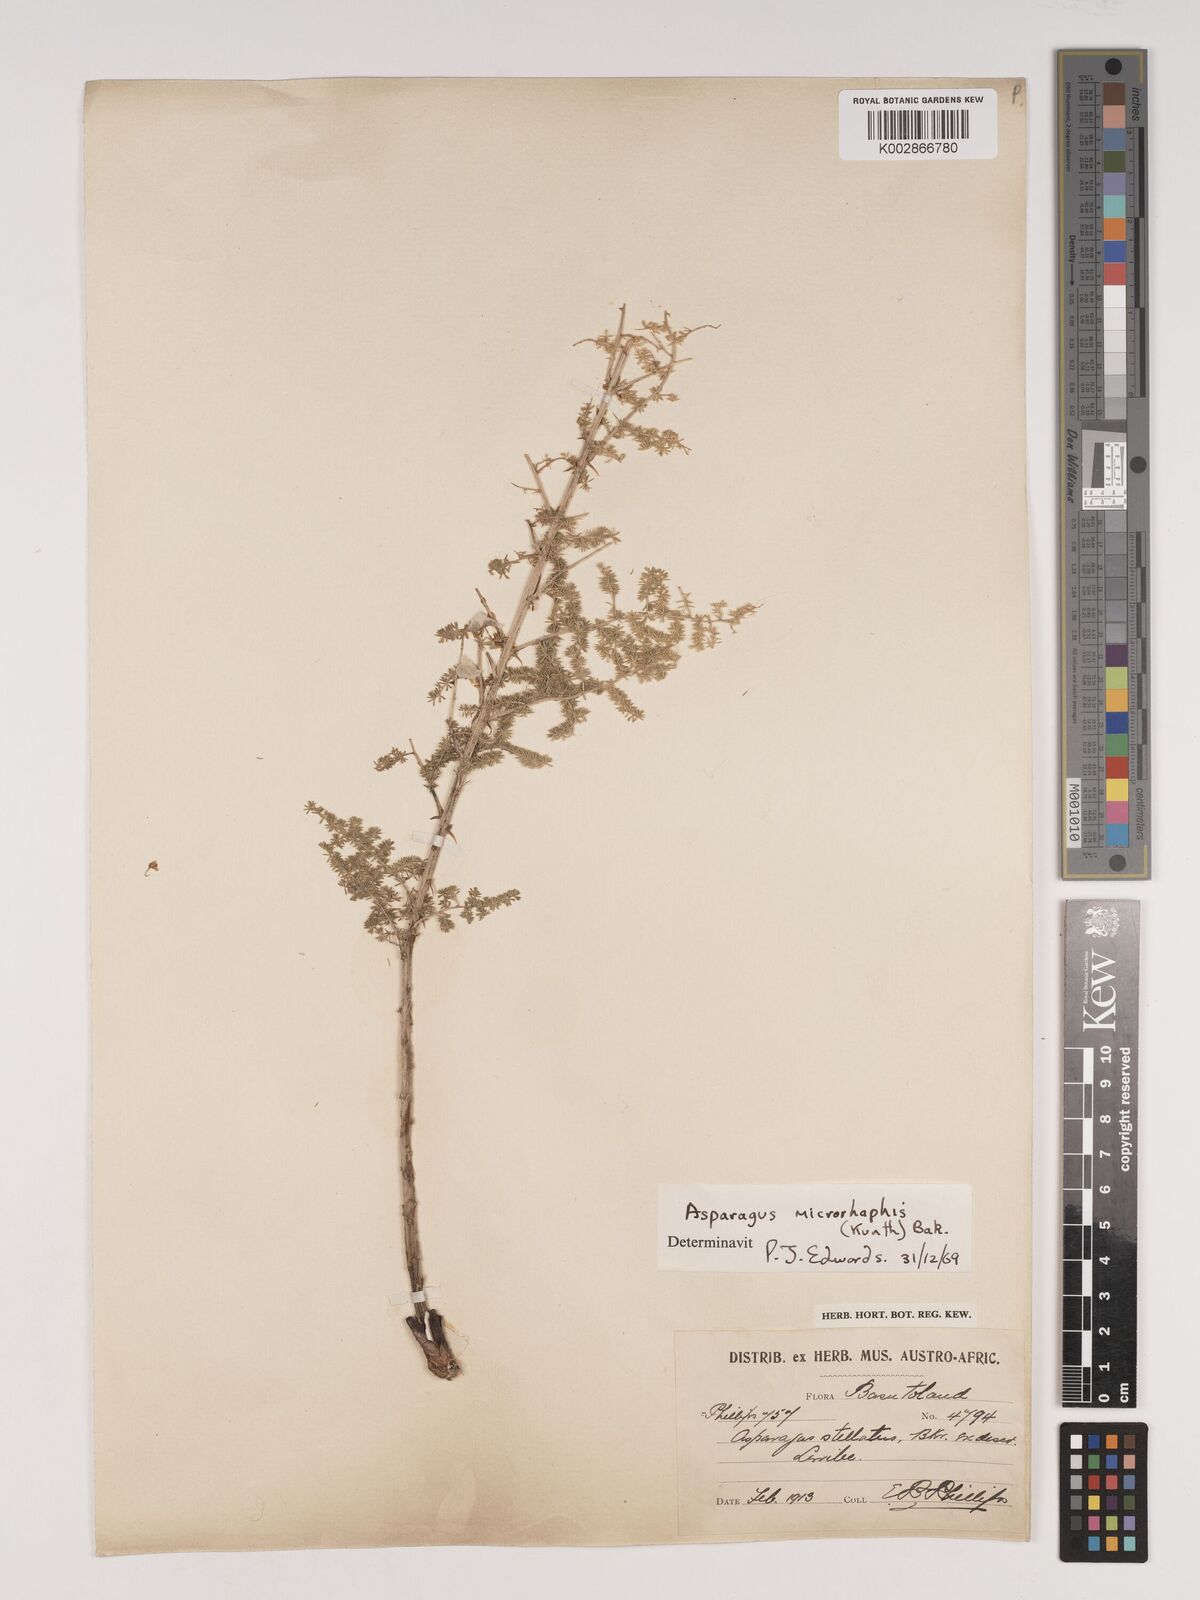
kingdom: Plantae
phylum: Tracheophyta
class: Liliopsida
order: Asparagales
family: Asparagaceae
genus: Asparagus
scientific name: Asparagus microraphis
